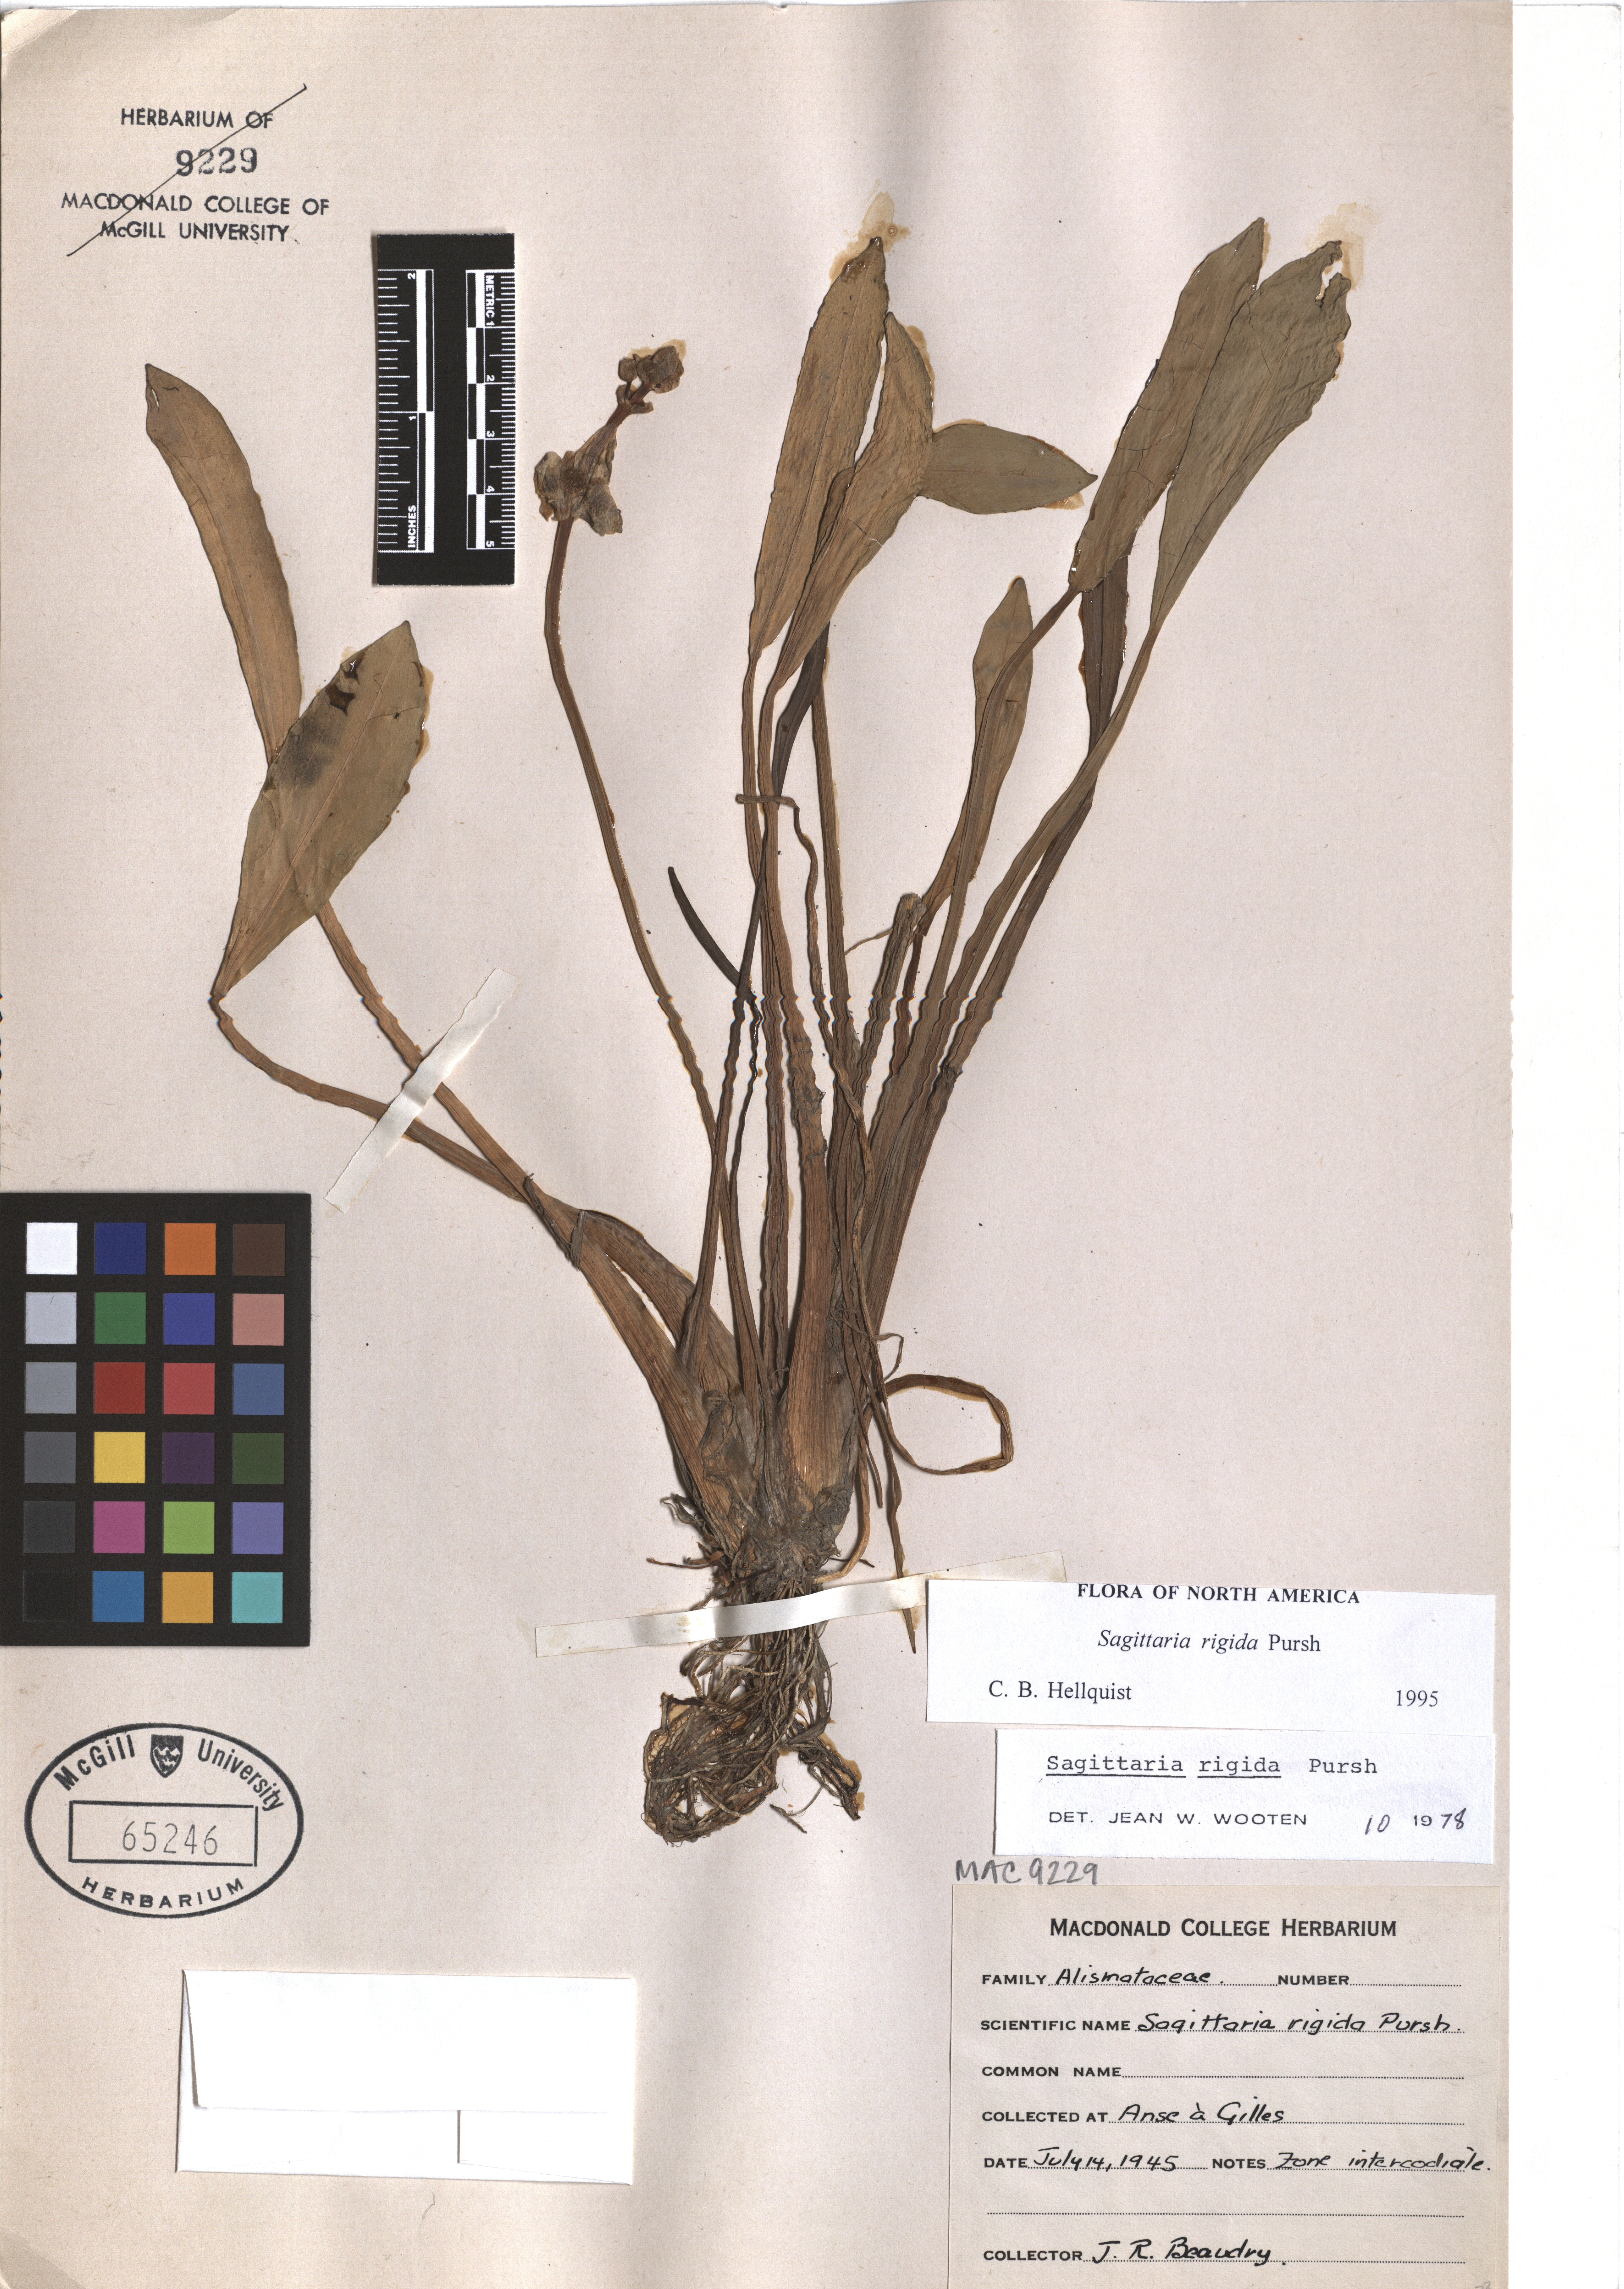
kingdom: Plantae
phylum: Tracheophyta
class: Liliopsida
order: Alismatales
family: Alismataceae
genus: Sagittaria
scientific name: Sagittaria rigida
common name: Canadian arrowhead
